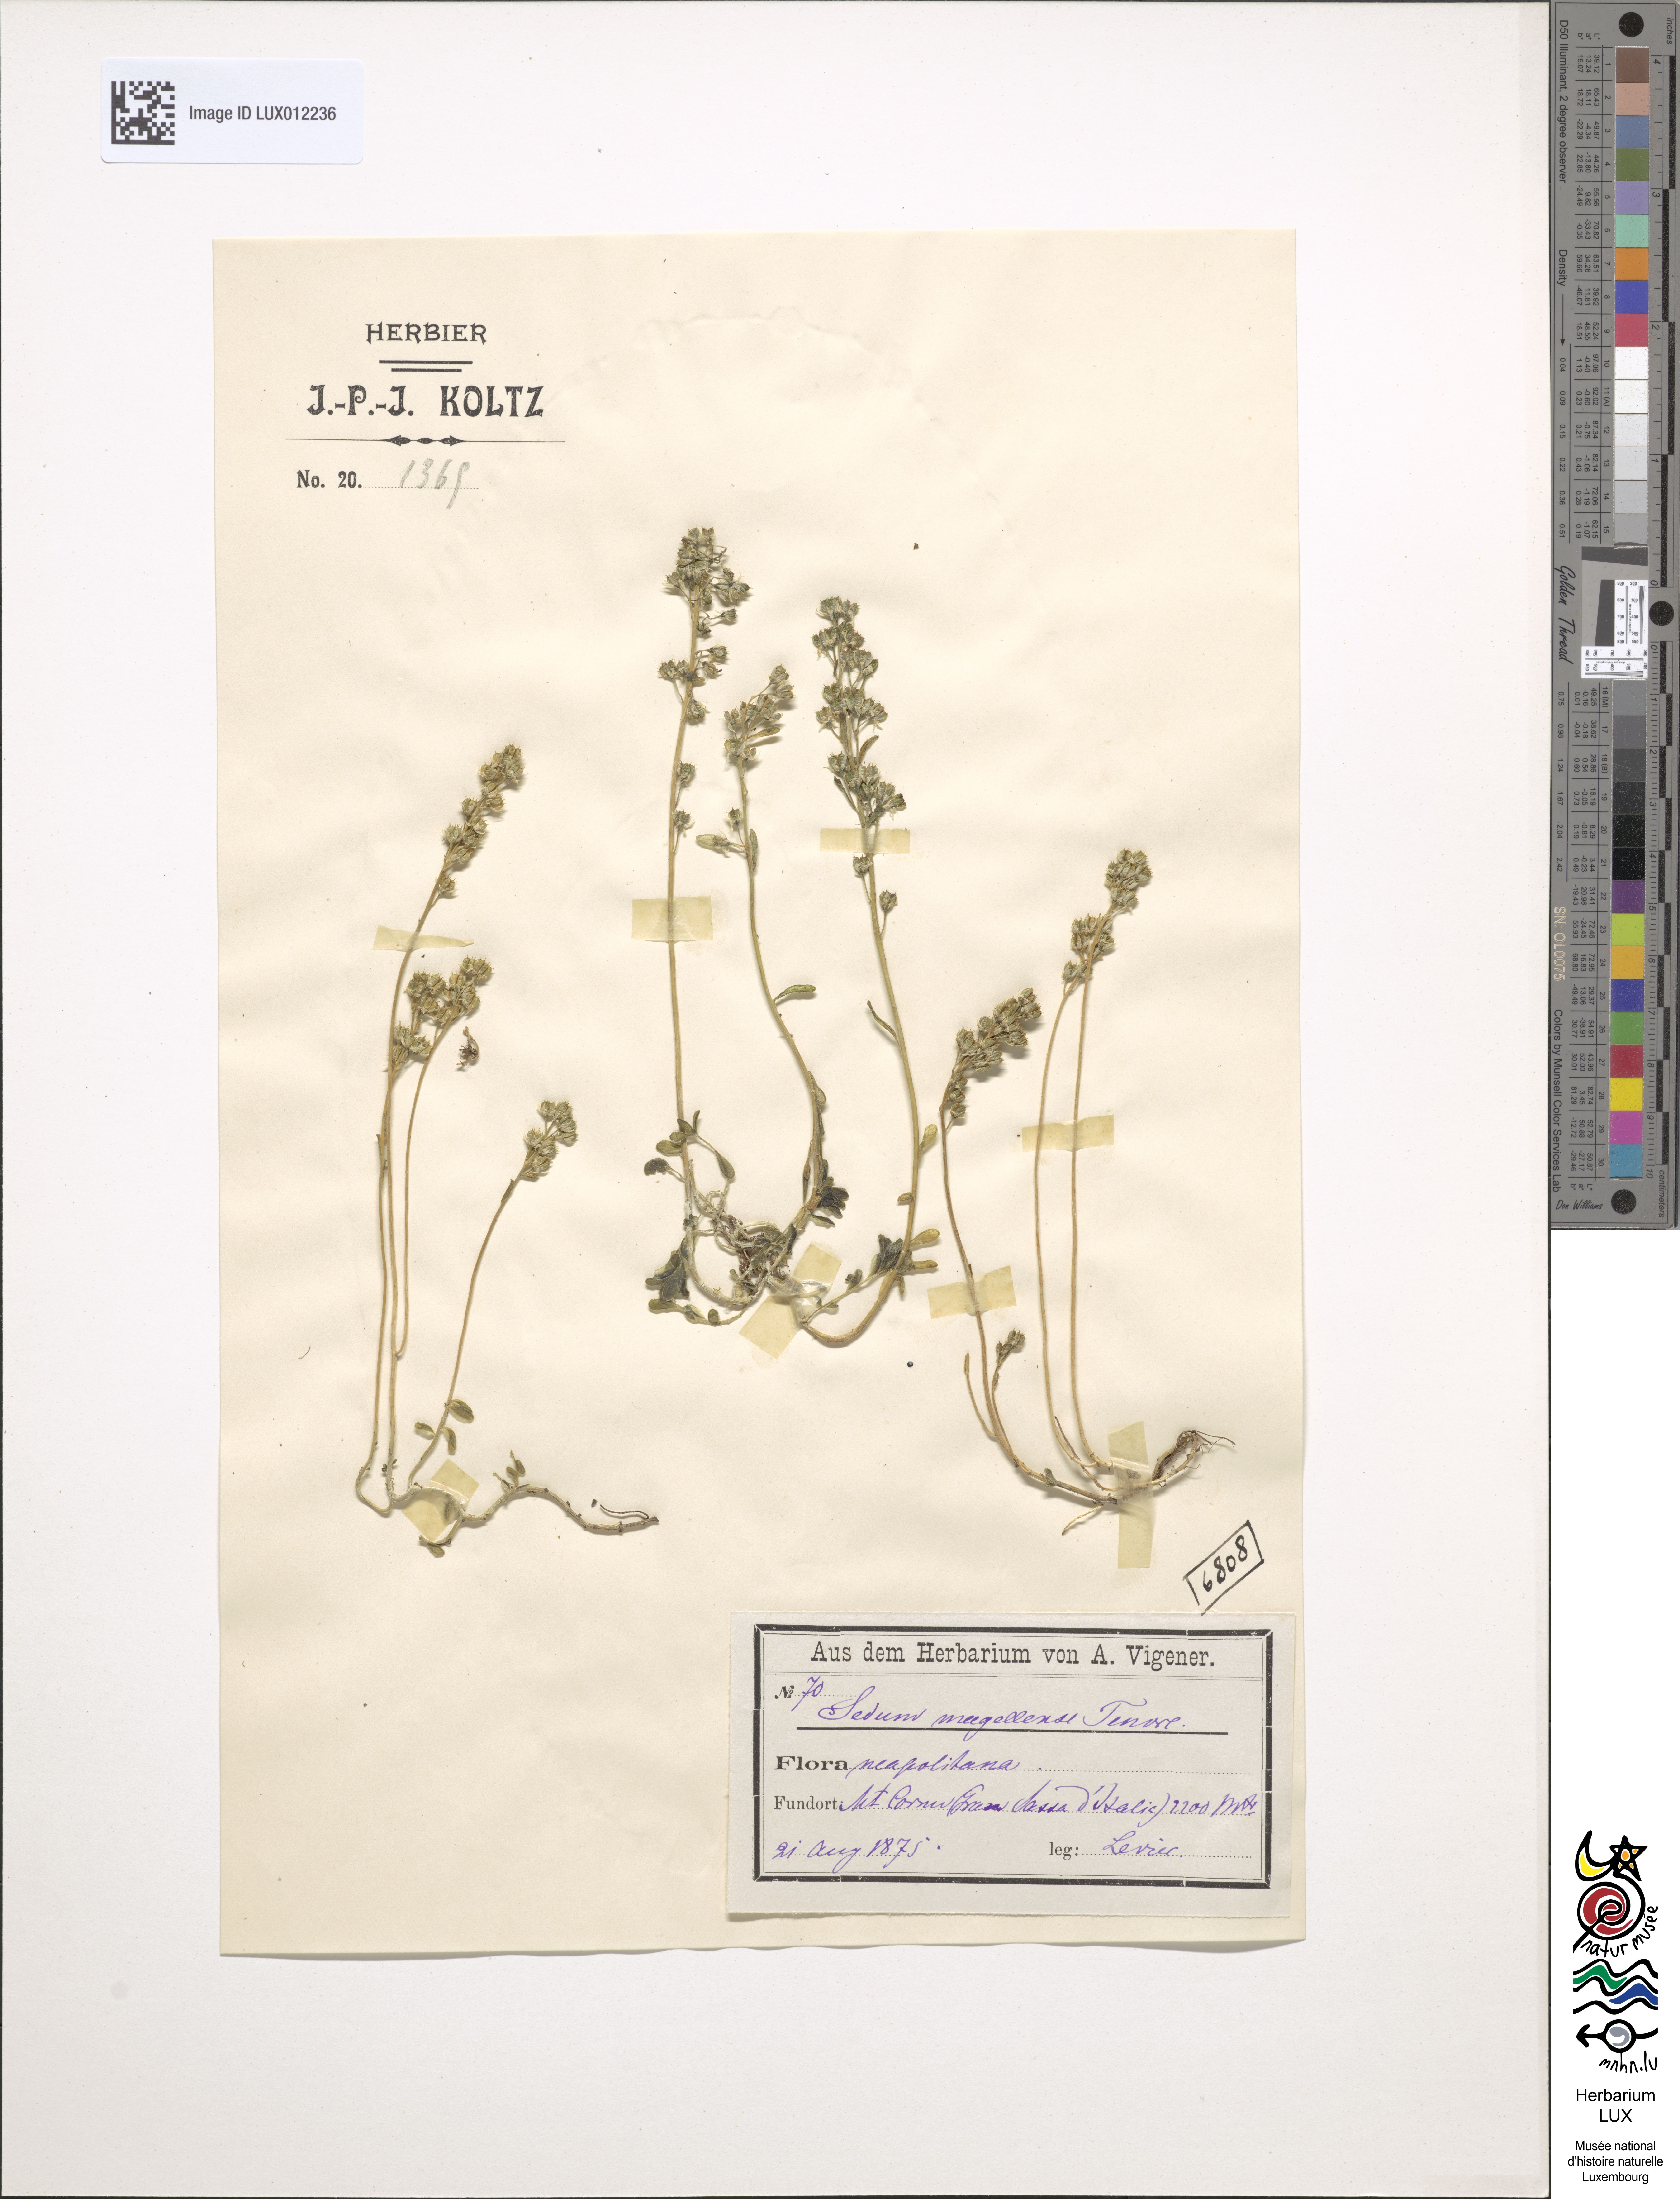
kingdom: Plantae
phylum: Tracheophyta
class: Magnoliopsida
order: Saxifragales
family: Crassulaceae
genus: Sedum
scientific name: Sedum magellense
